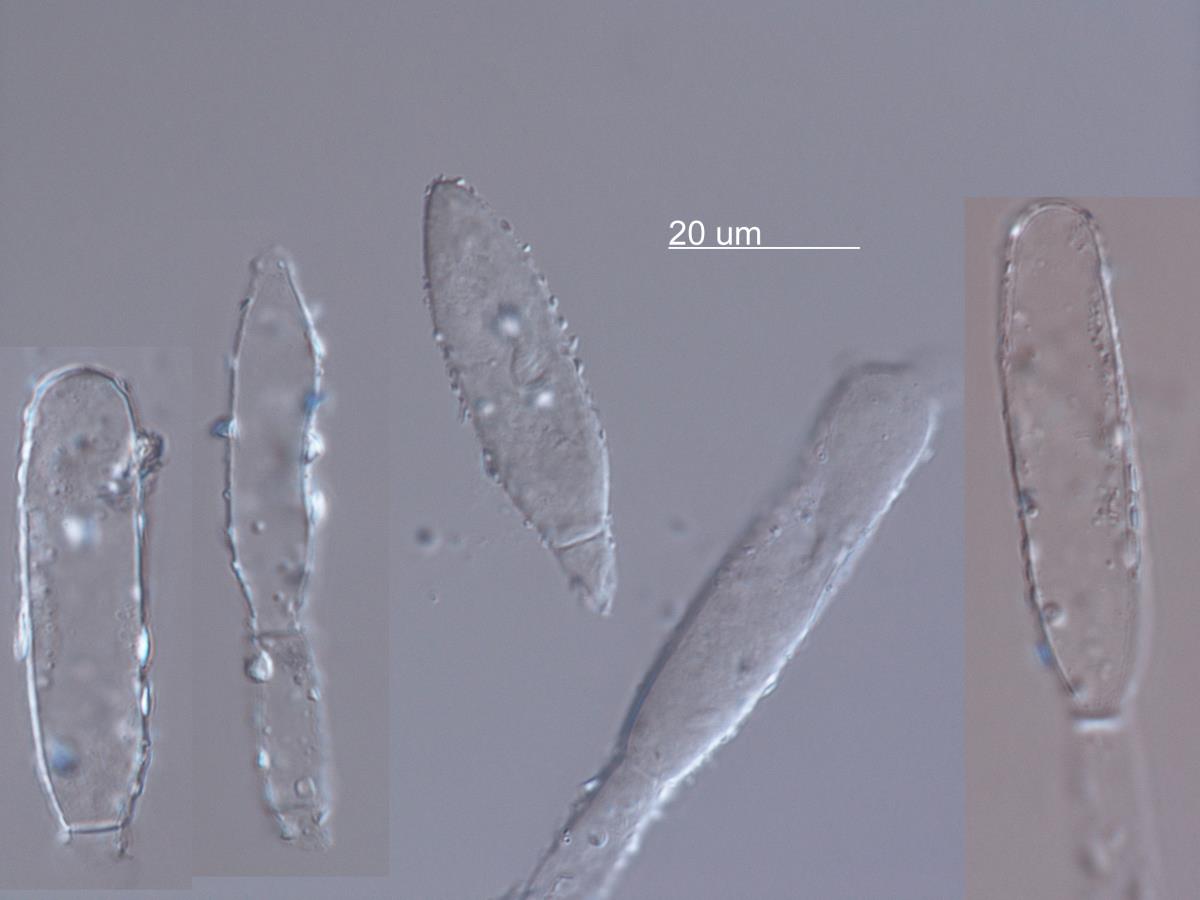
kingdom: Fungi
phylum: Ascomycota
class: Leotiomycetes
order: Helotiales
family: Erysiphaceae
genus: Leveillula
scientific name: Leveillula lappae
